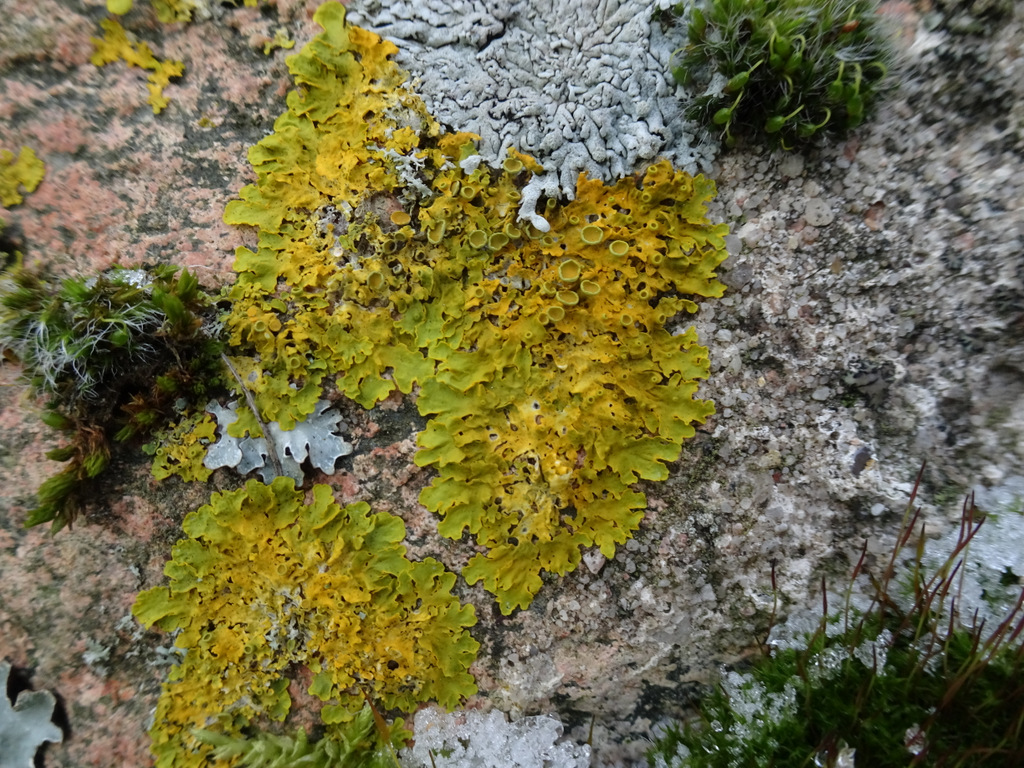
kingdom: Fungi
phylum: Ascomycota
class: Lecanoromycetes
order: Teloschistales
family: Teloschistaceae
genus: Xanthoria
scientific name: Xanthoria parietina
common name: almindelig væggelav
